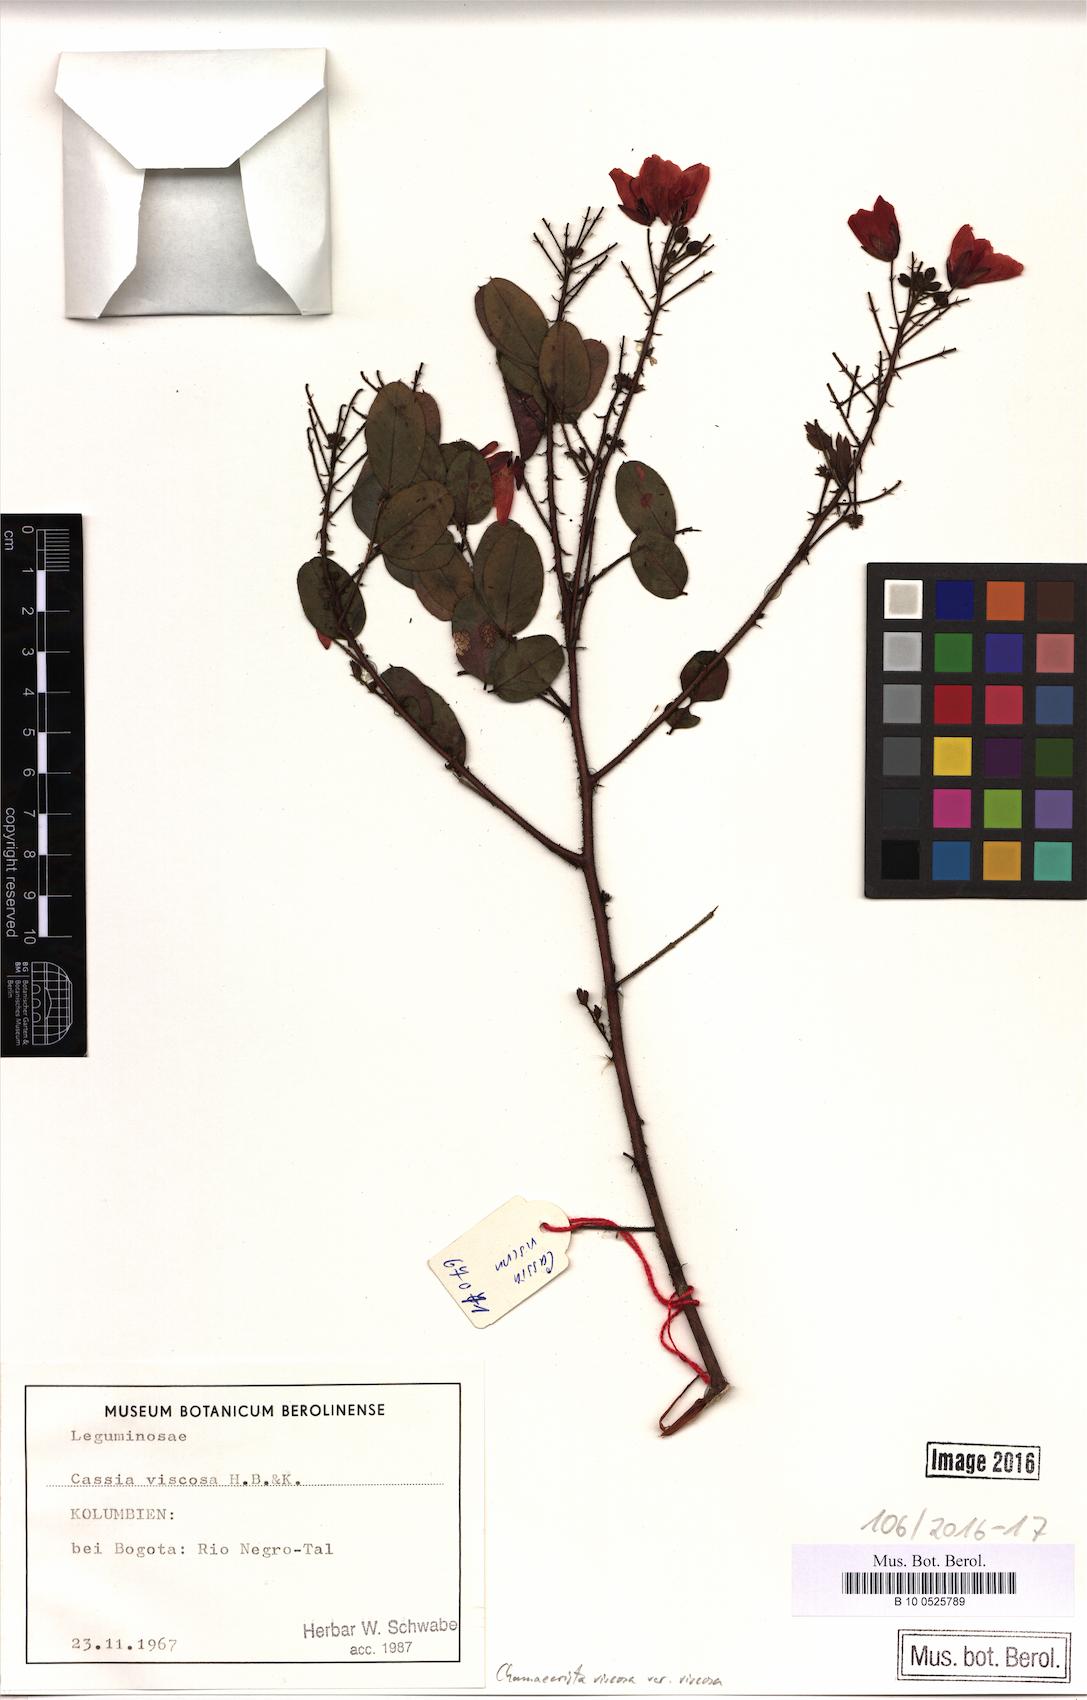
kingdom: Plantae
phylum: Tracheophyta
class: Magnoliopsida
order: Fabales
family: Fabaceae
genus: Chamaecrista
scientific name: Chamaecrista viscosa
